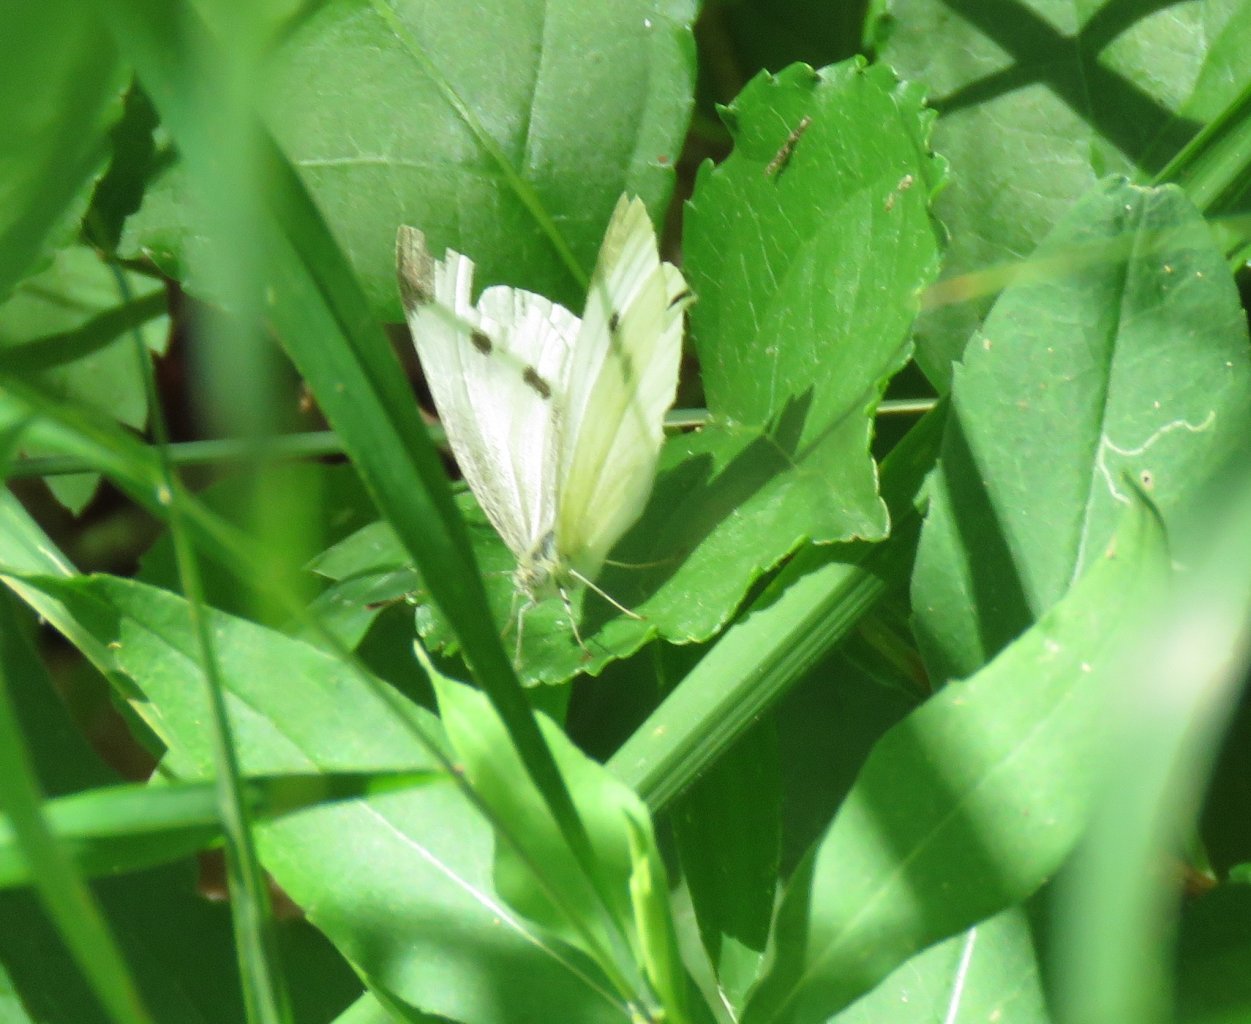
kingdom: Animalia
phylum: Arthropoda
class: Insecta
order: Lepidoptera
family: Pieridae
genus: Pieris
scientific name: Pieris rapae
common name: Cabbage White
